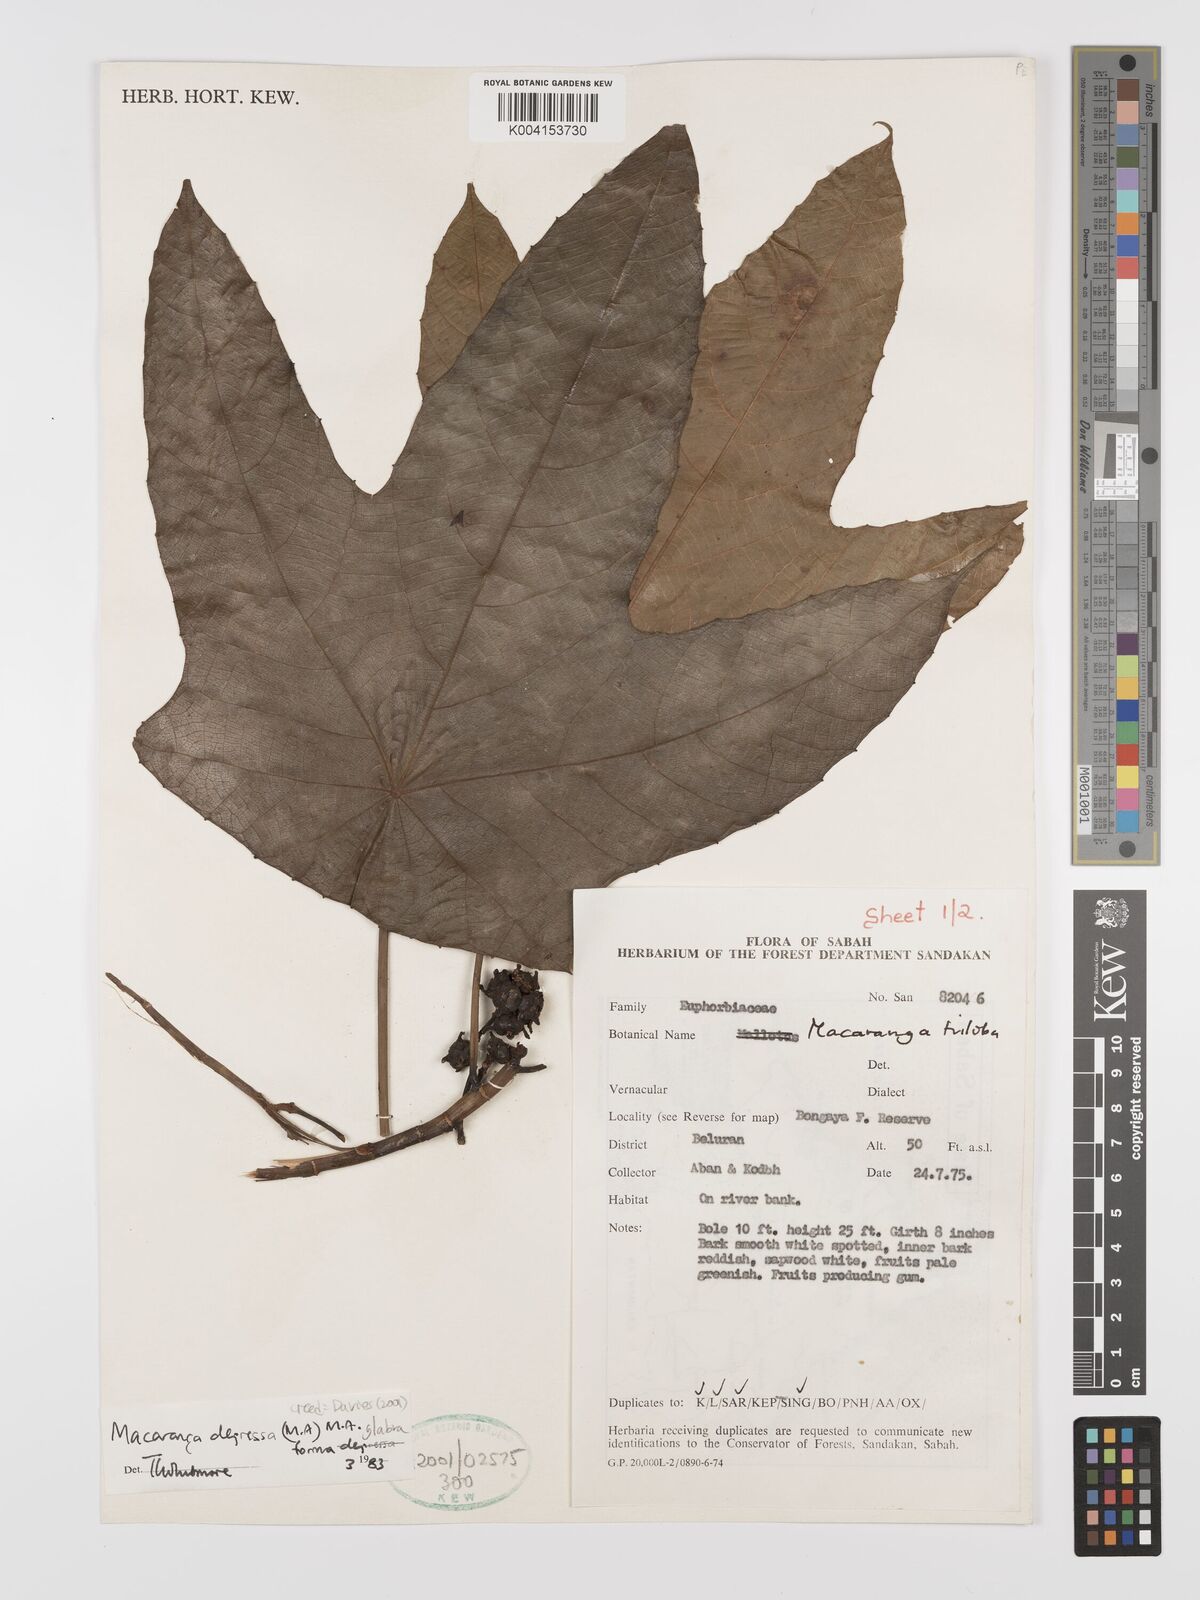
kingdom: Plantae
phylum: Tracheophyta
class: Magnoliopsida
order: Malpighiales
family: Euphorbiaceae
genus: Macaranga
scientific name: Macaranga depressa
